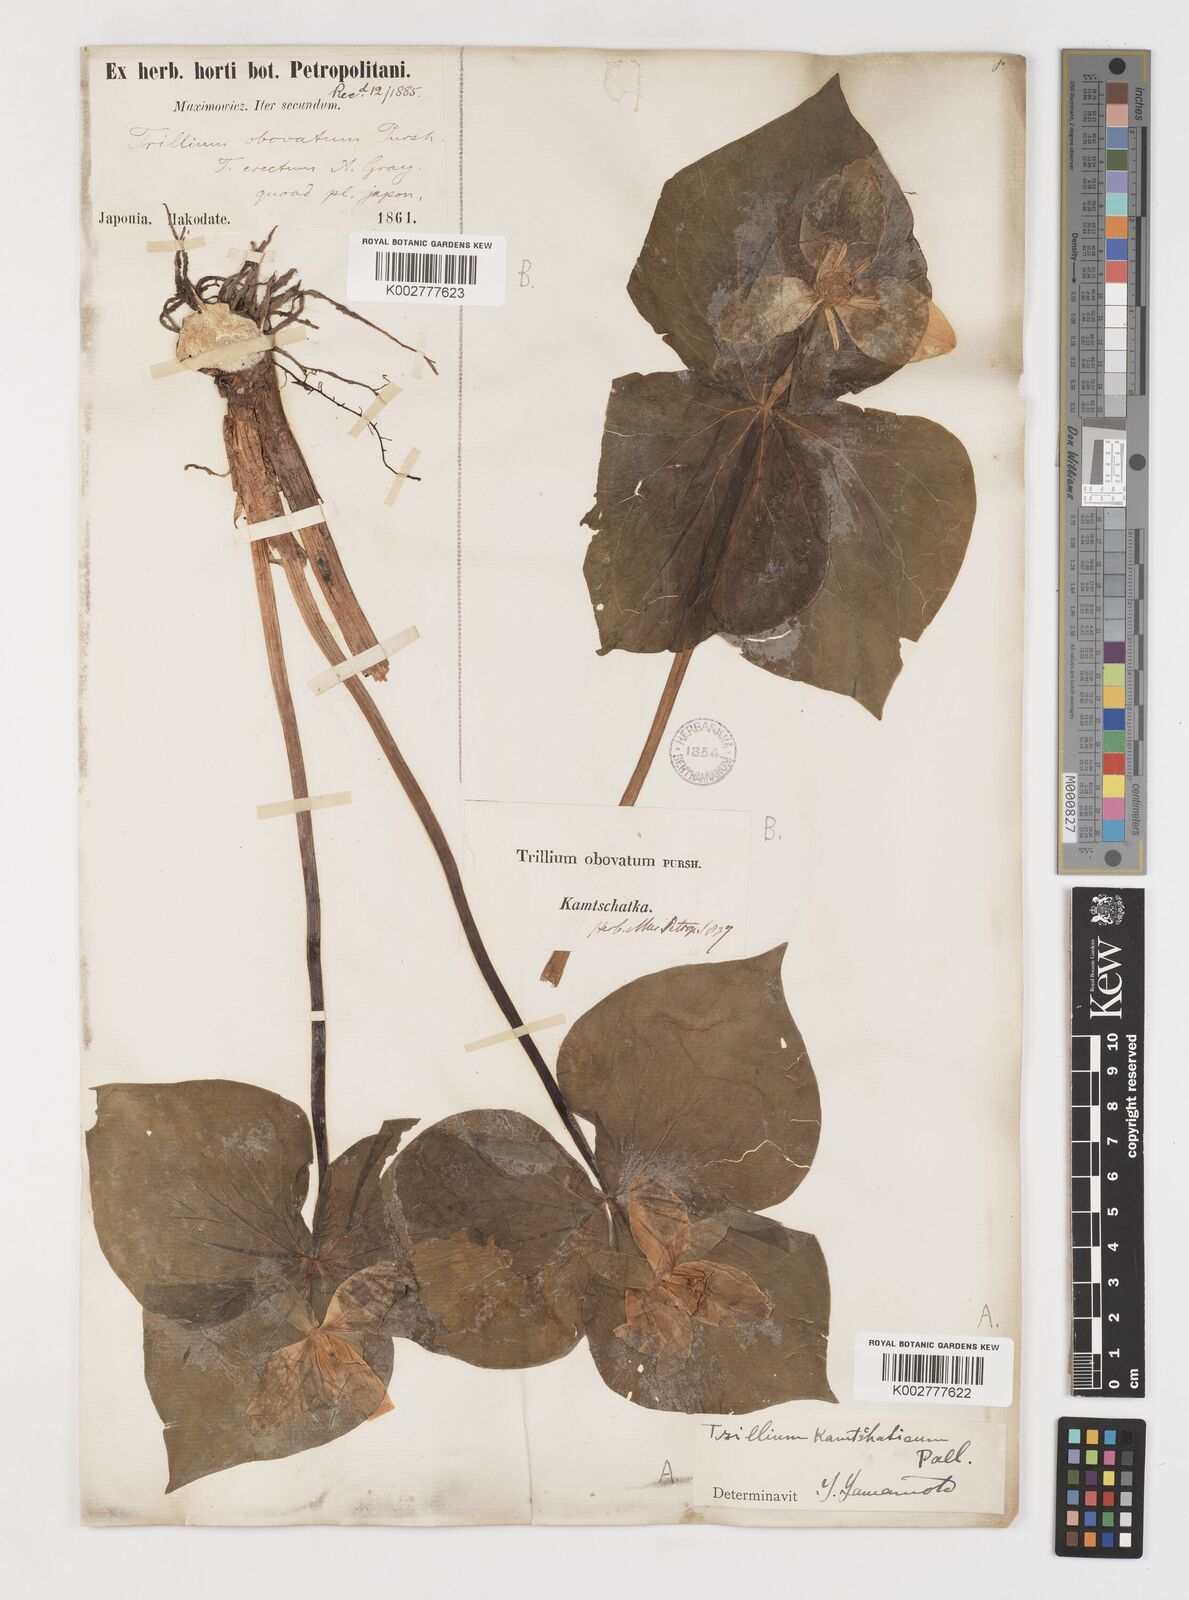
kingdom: Plantae
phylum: Tracheophyta
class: Liliopsida
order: Liliales
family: Melanthiaceae
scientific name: Melanthiaceae
